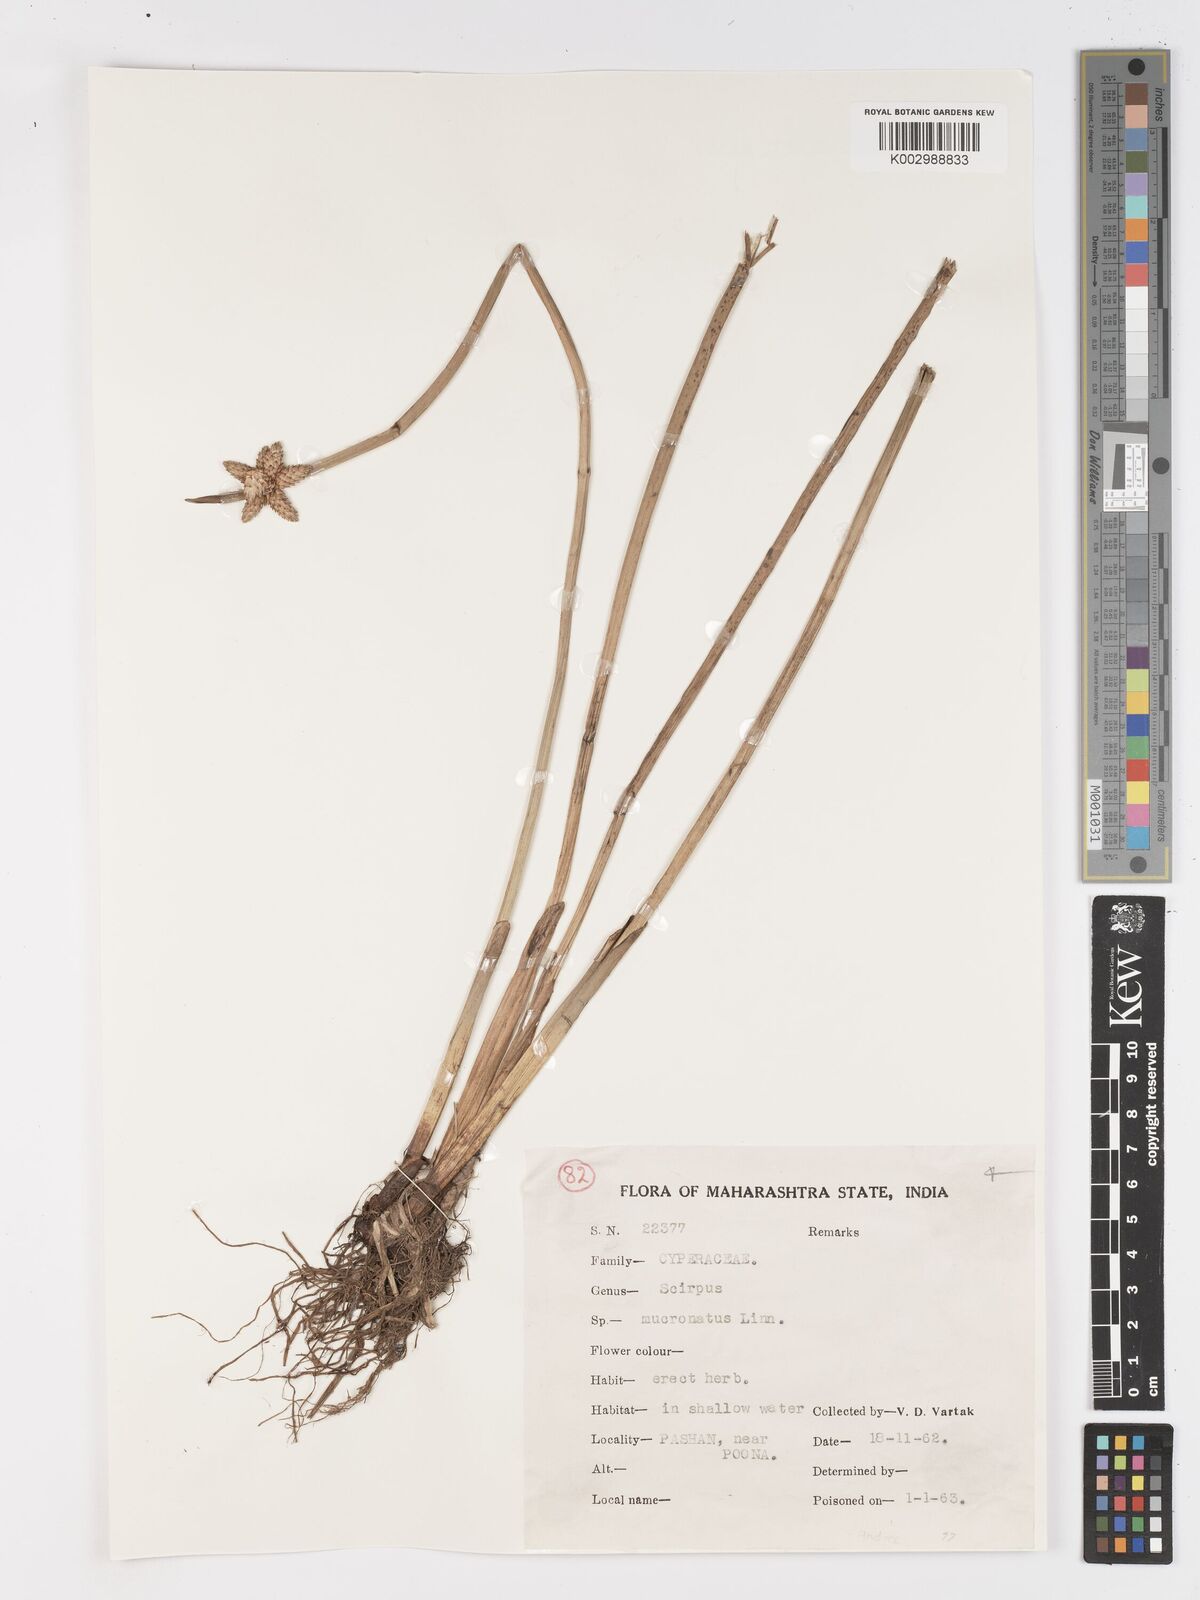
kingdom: Plantae
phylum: Tracheophyta
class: Liliopsida
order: Poales
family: Cyperaceae
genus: Schoenoplectiella
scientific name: Schoenoplectiella mucronata
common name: Bog bulrush
